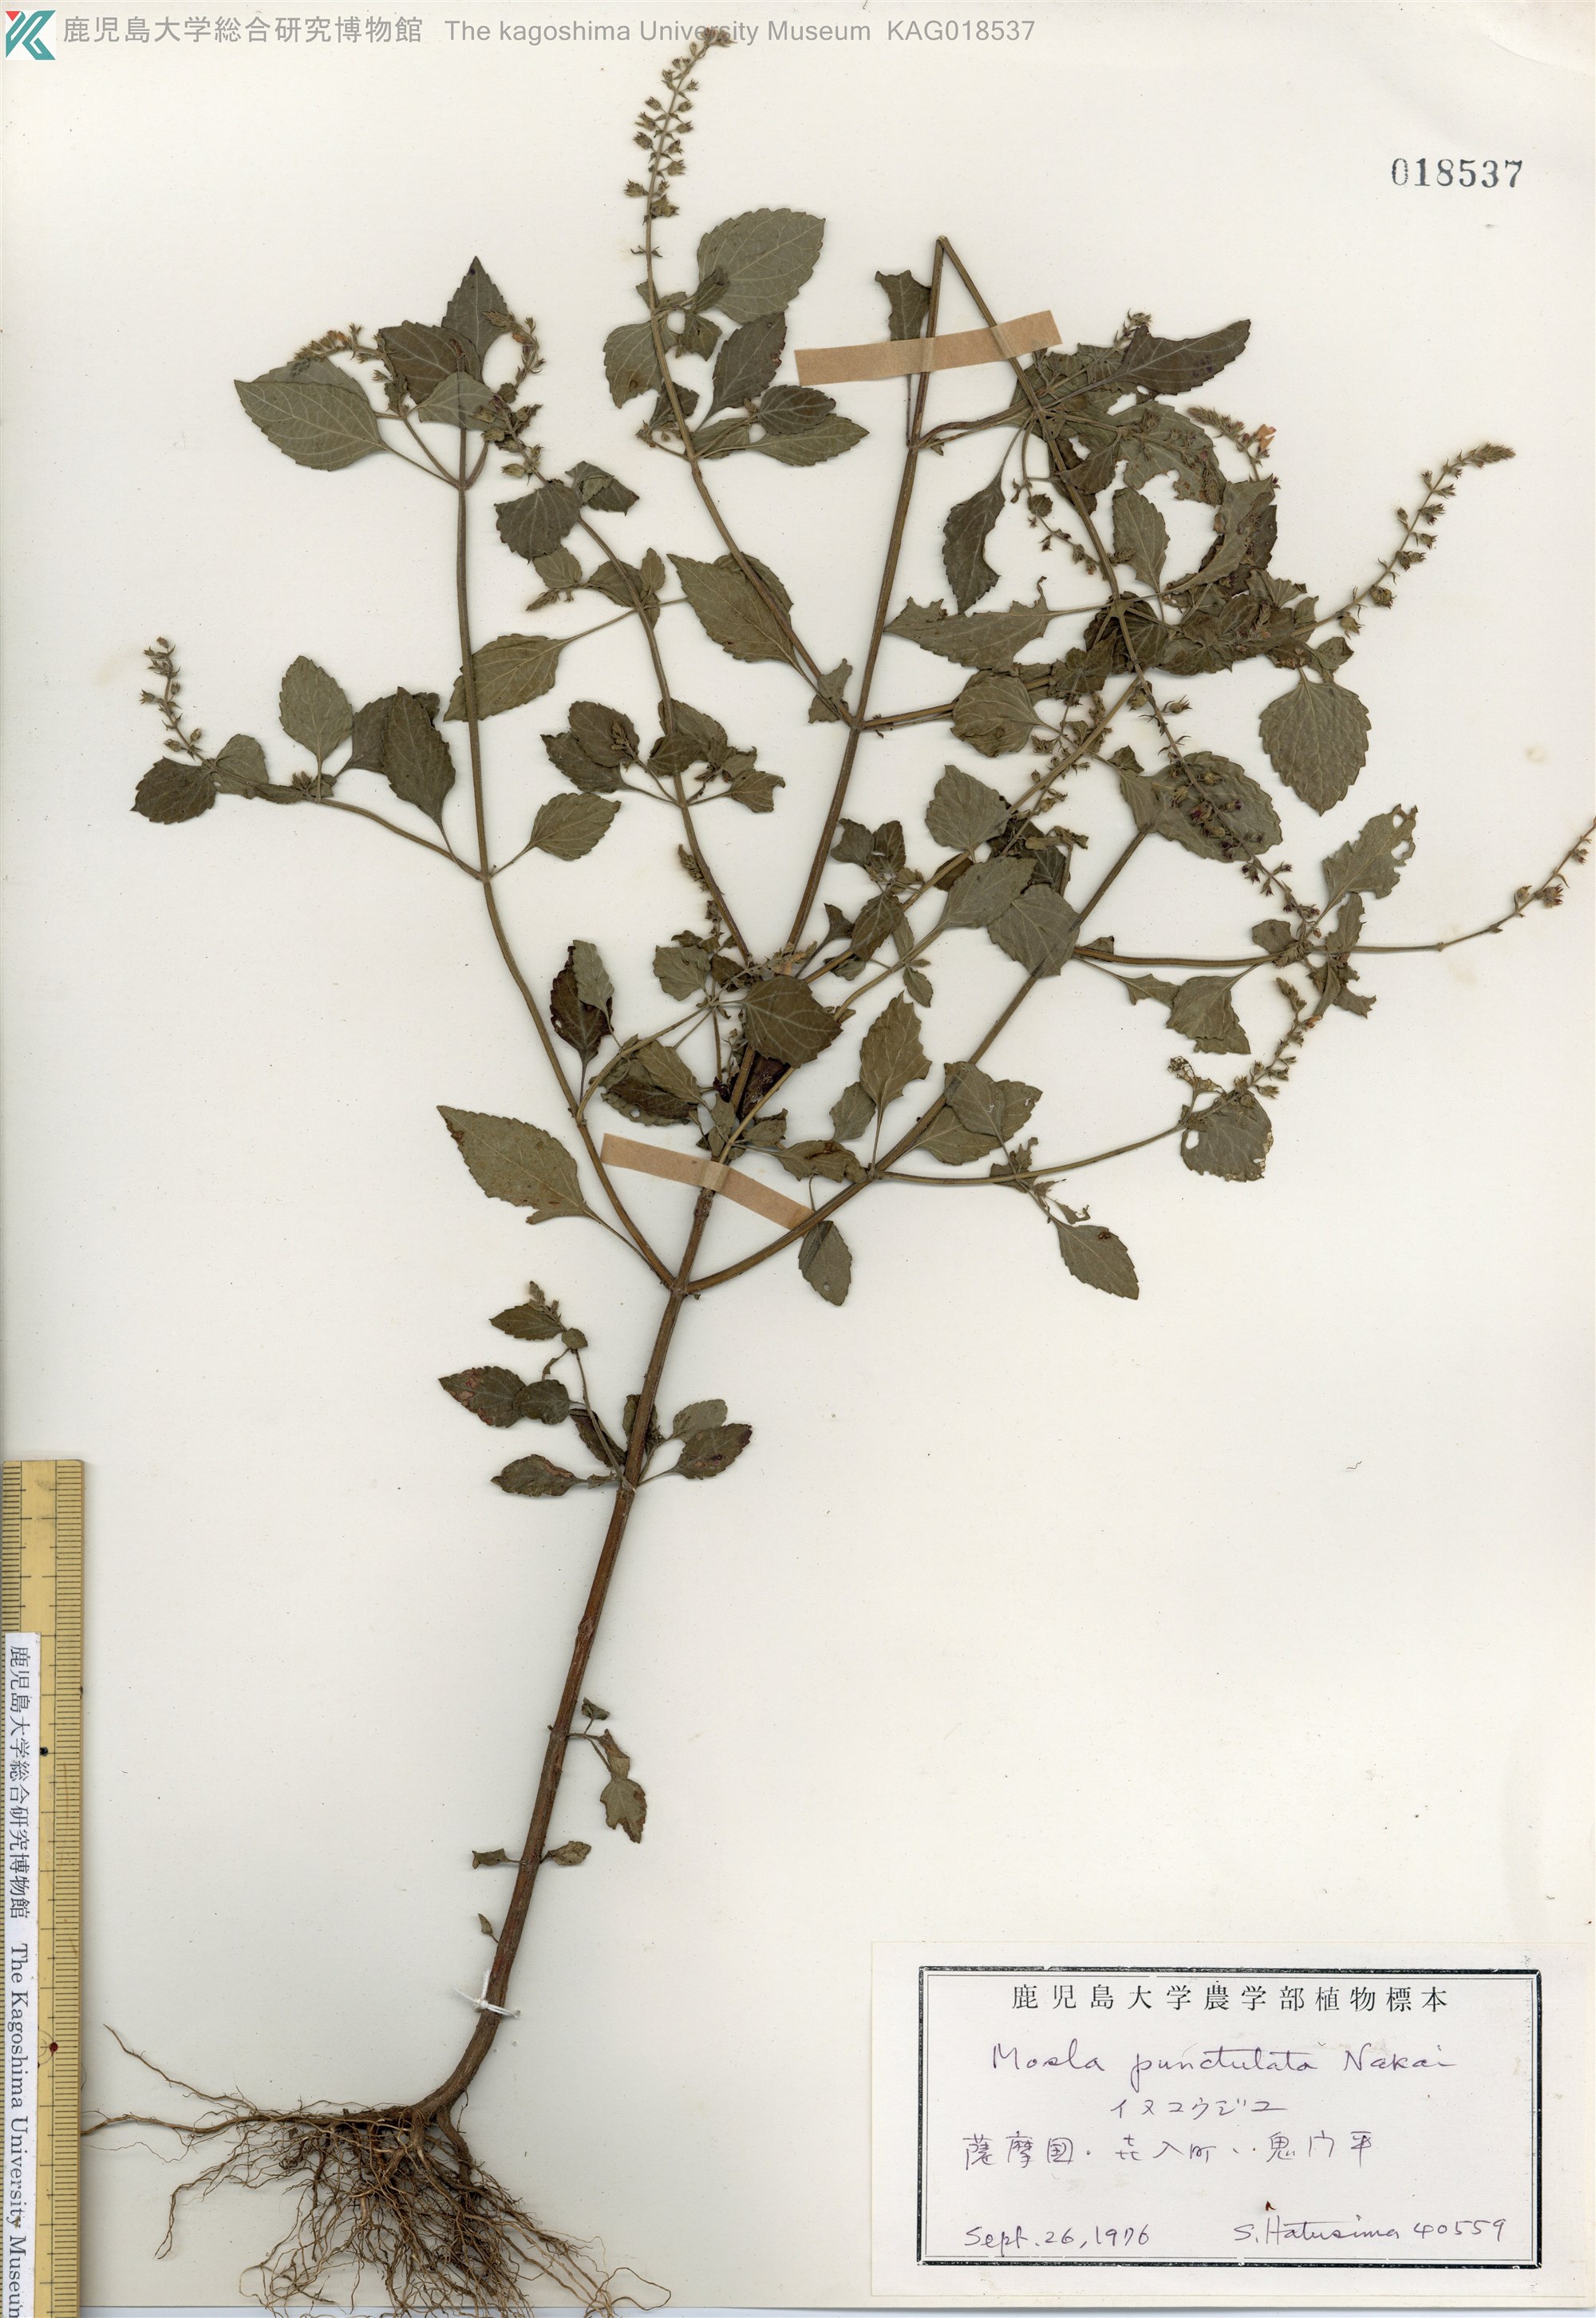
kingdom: Plantae
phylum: Tracheophyta
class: Magnoliopsida
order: Lamiales
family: Lamiaceae
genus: Mosla
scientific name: Mosla scabra
